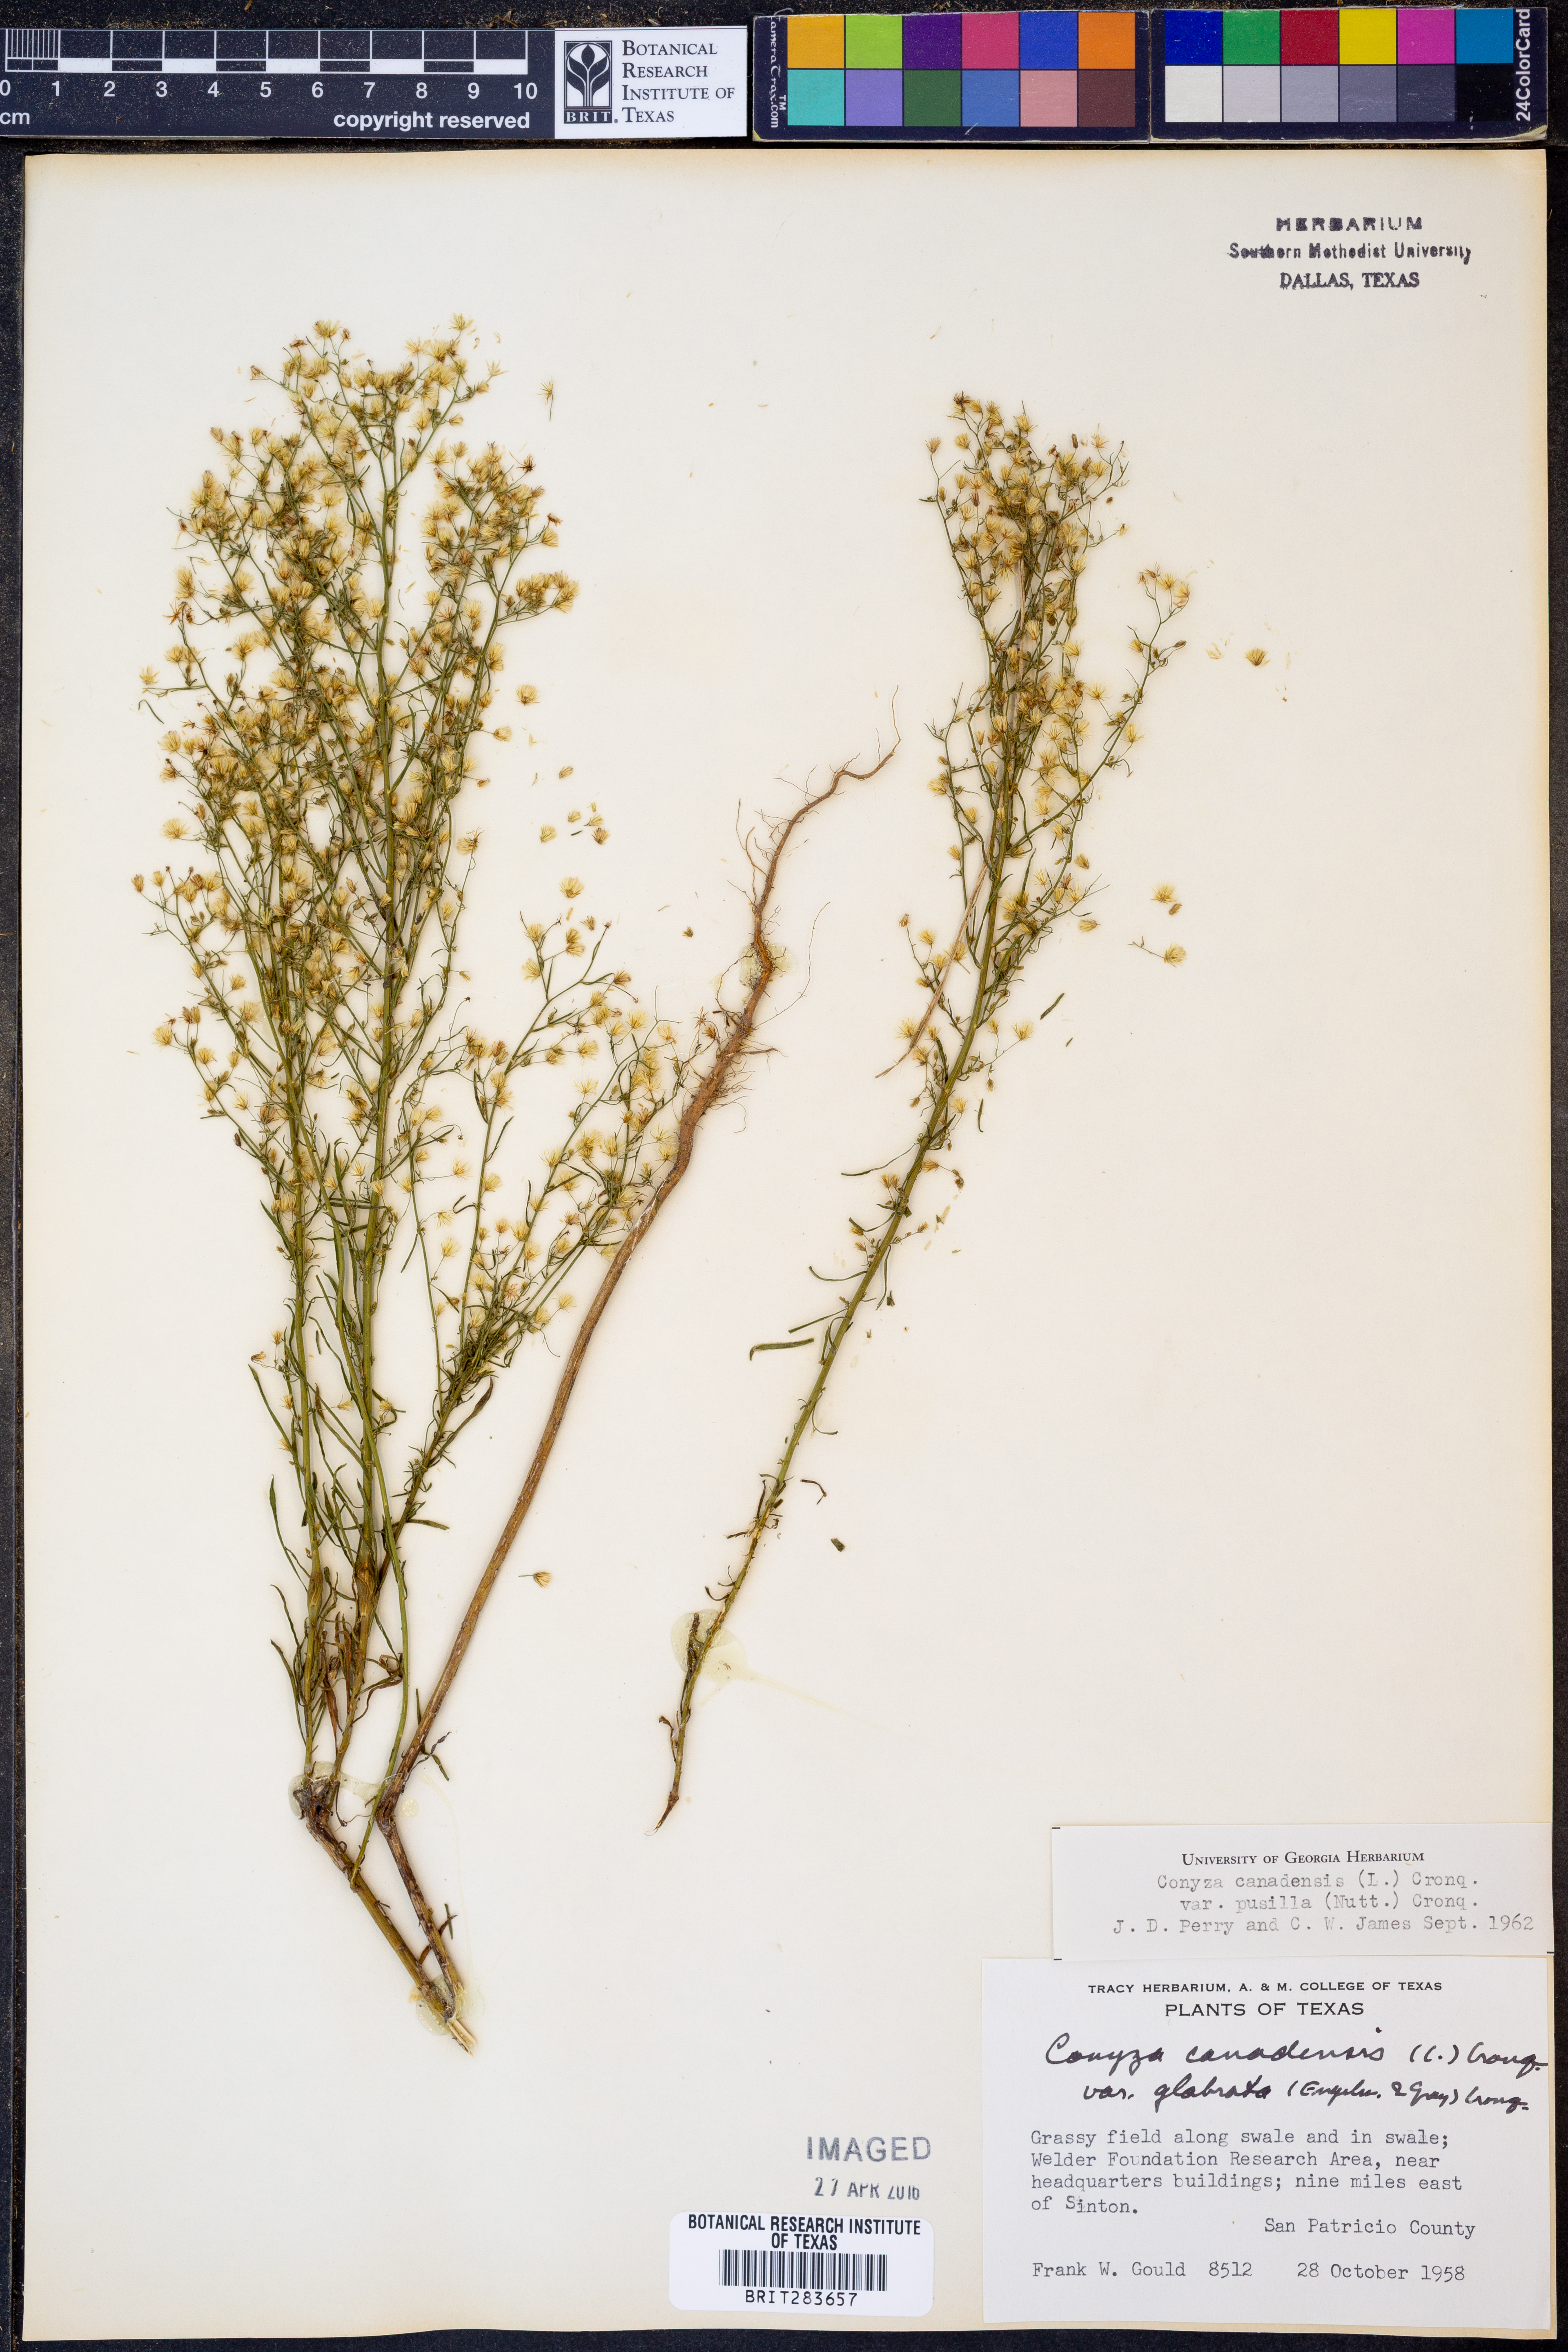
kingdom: Plantae
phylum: Tracheophyta
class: Magnoliopsida
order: Asterales
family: Asteraceae
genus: Erigeron
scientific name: Erigeron canadensis
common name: Canadian fleabane
